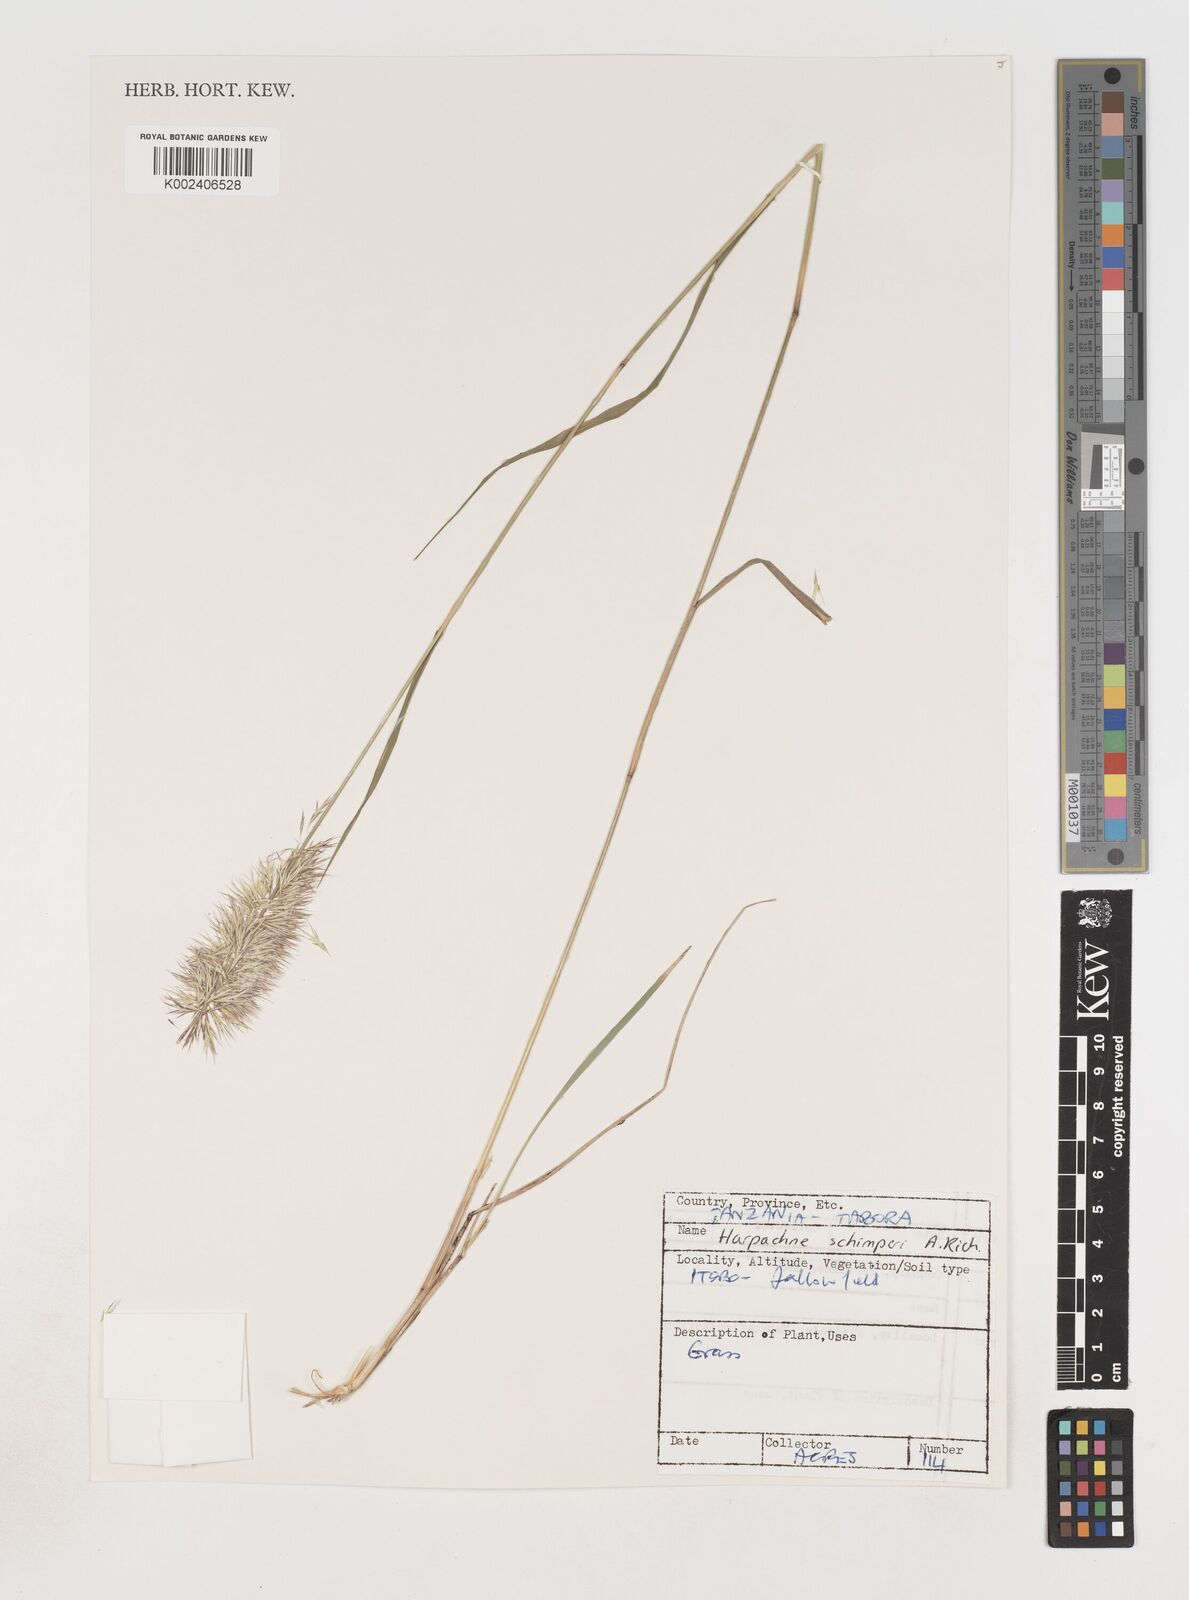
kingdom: Plantae
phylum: Tracheophyta
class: Liliopsida
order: Poales
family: Poaceae
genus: Harpachne
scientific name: Harpachne schimperi
